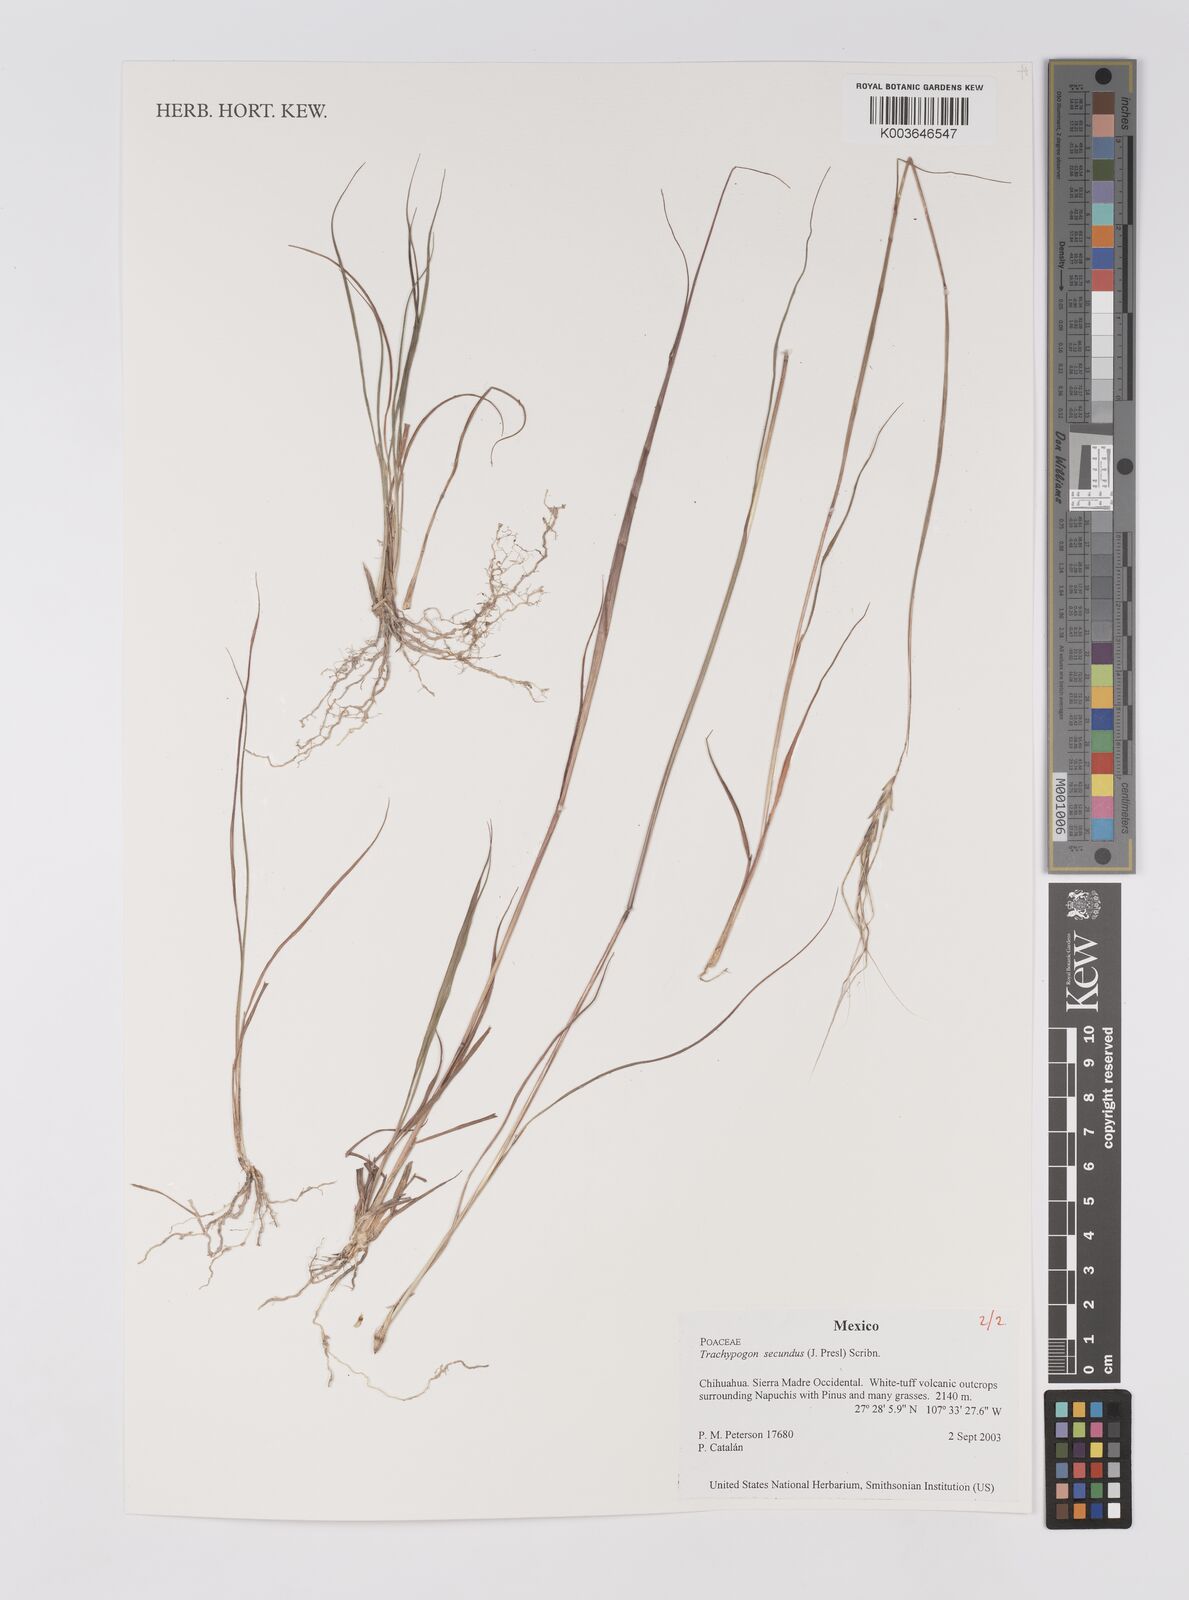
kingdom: Plantae
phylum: Tracheophyta
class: Liliopsida
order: Poales
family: Poaceae
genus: Trachypogon
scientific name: Trachypogon spicatus
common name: Crinkle-awn
